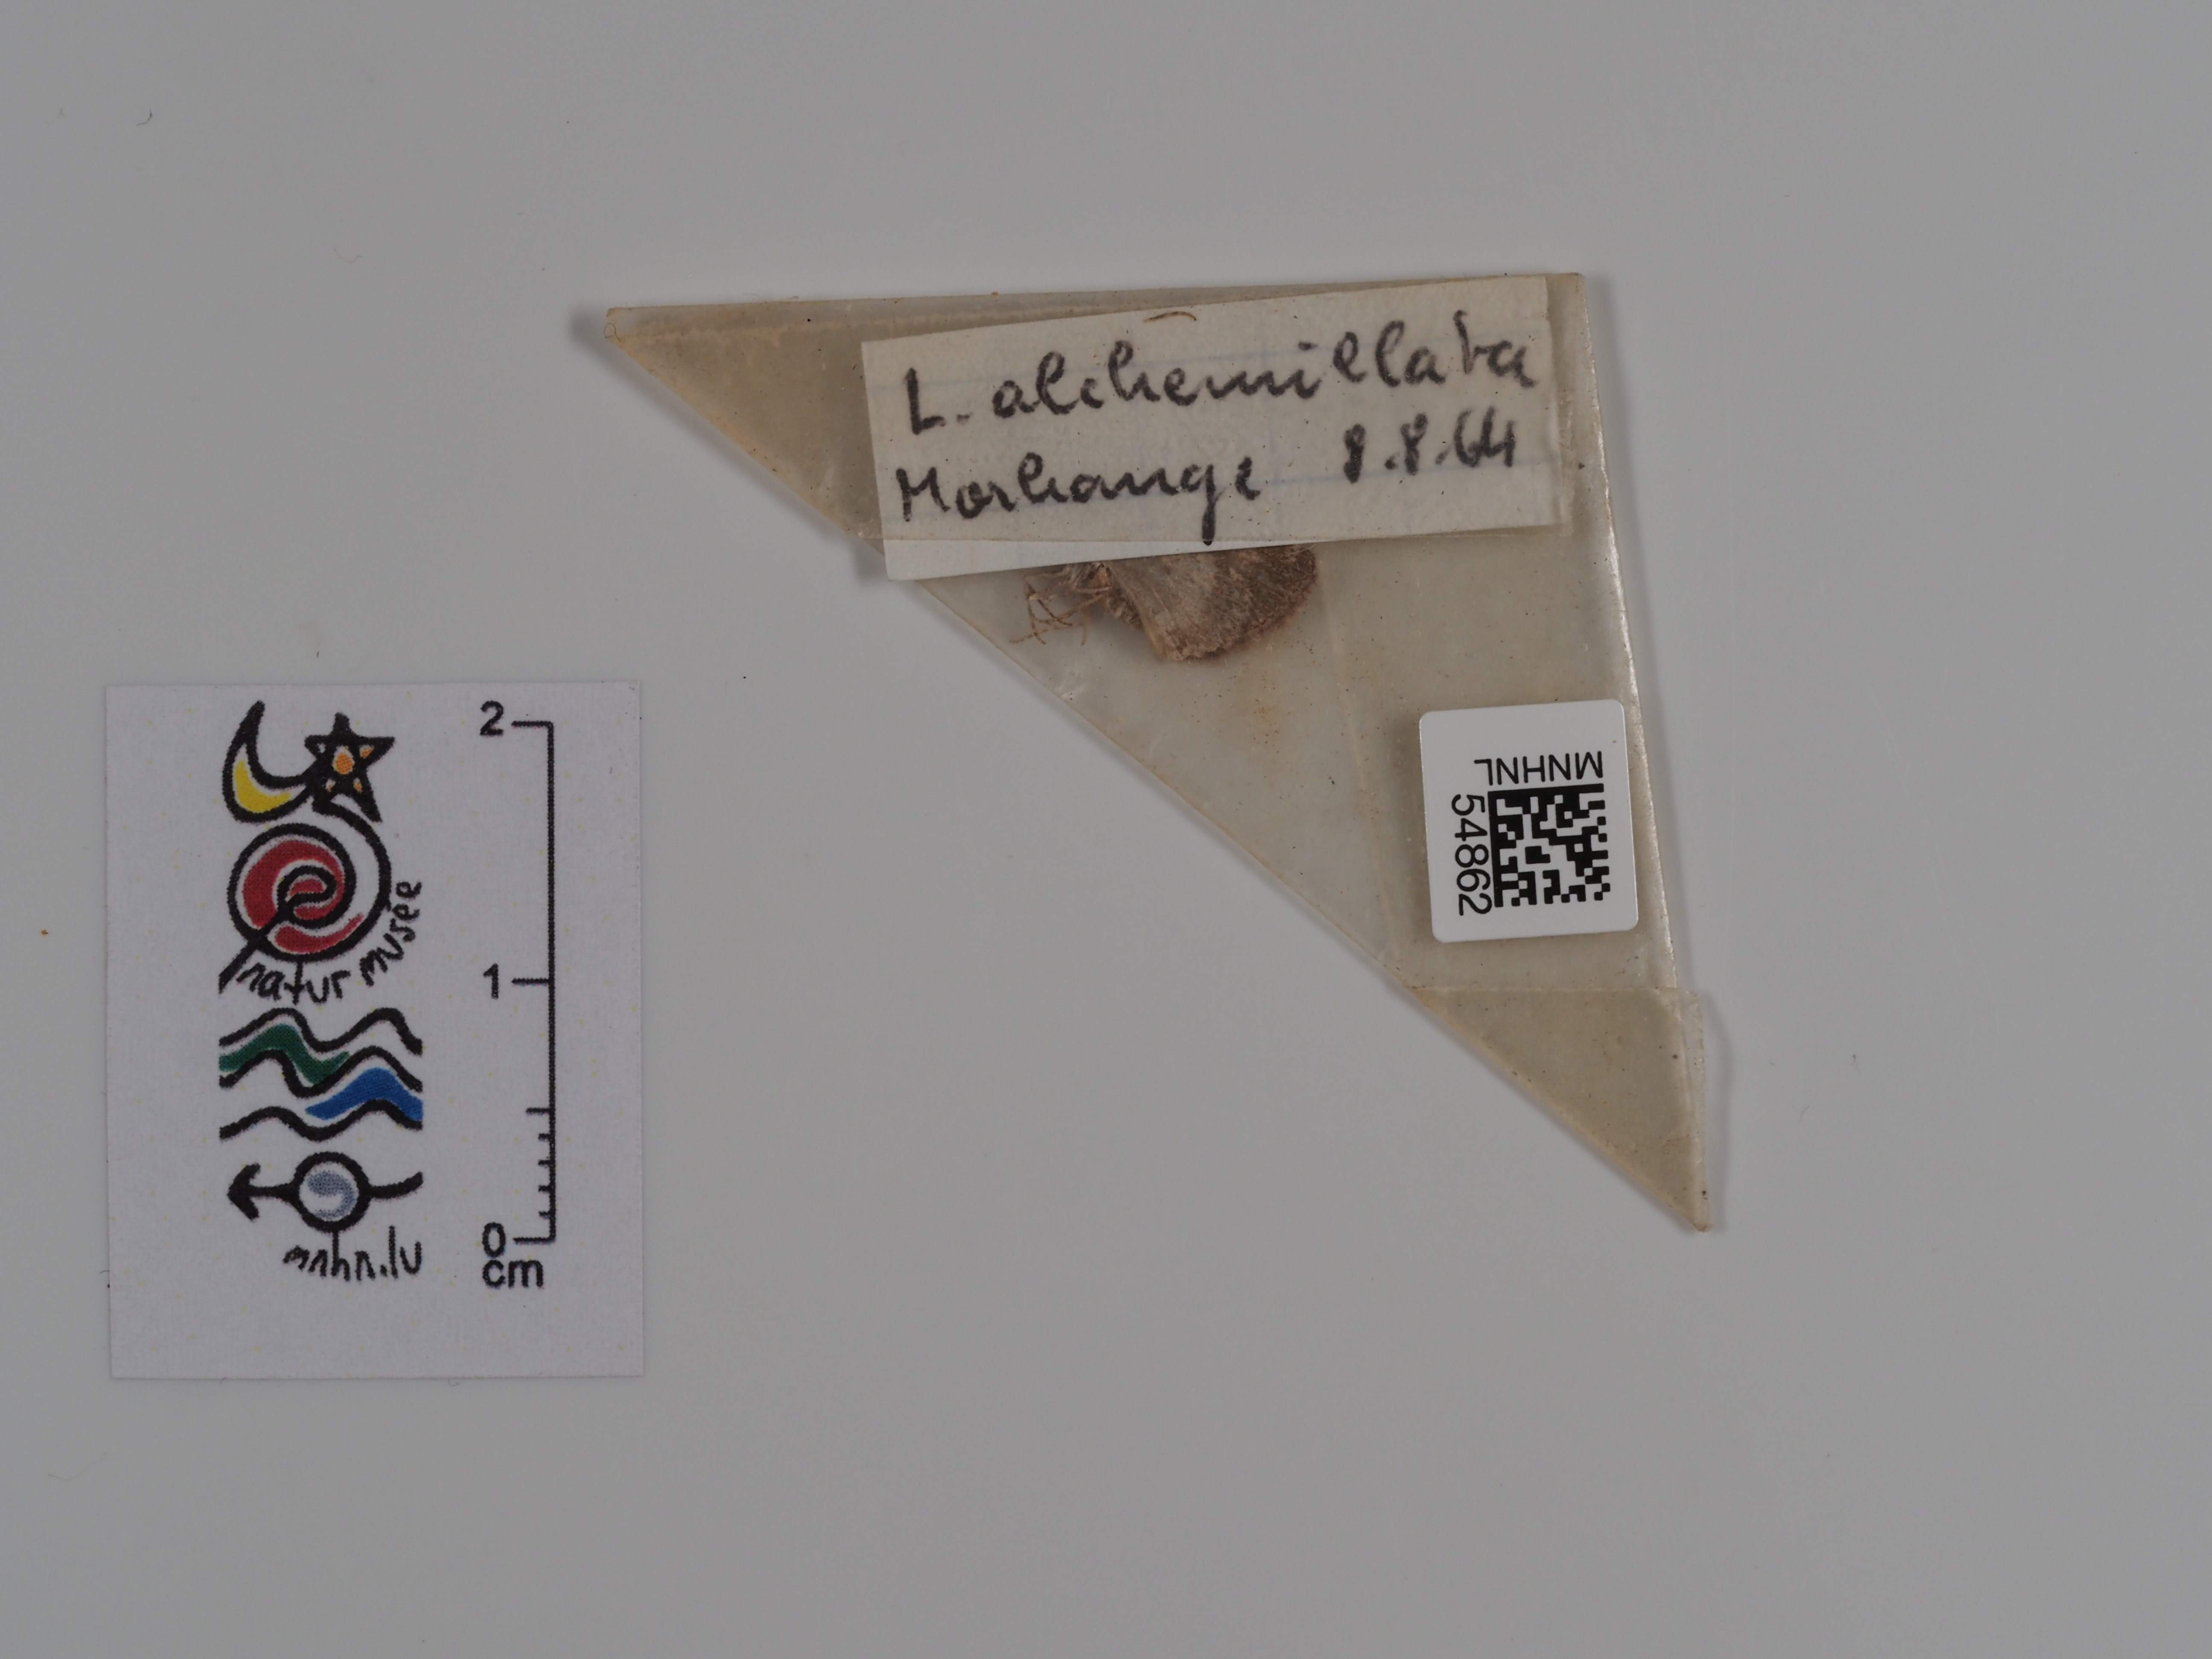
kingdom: Animalia
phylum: Arthropoda
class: Insecta
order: Lepidoptera
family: Geometridae
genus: Perizoma
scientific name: Perizoma alchemillata
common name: Small rivulet
